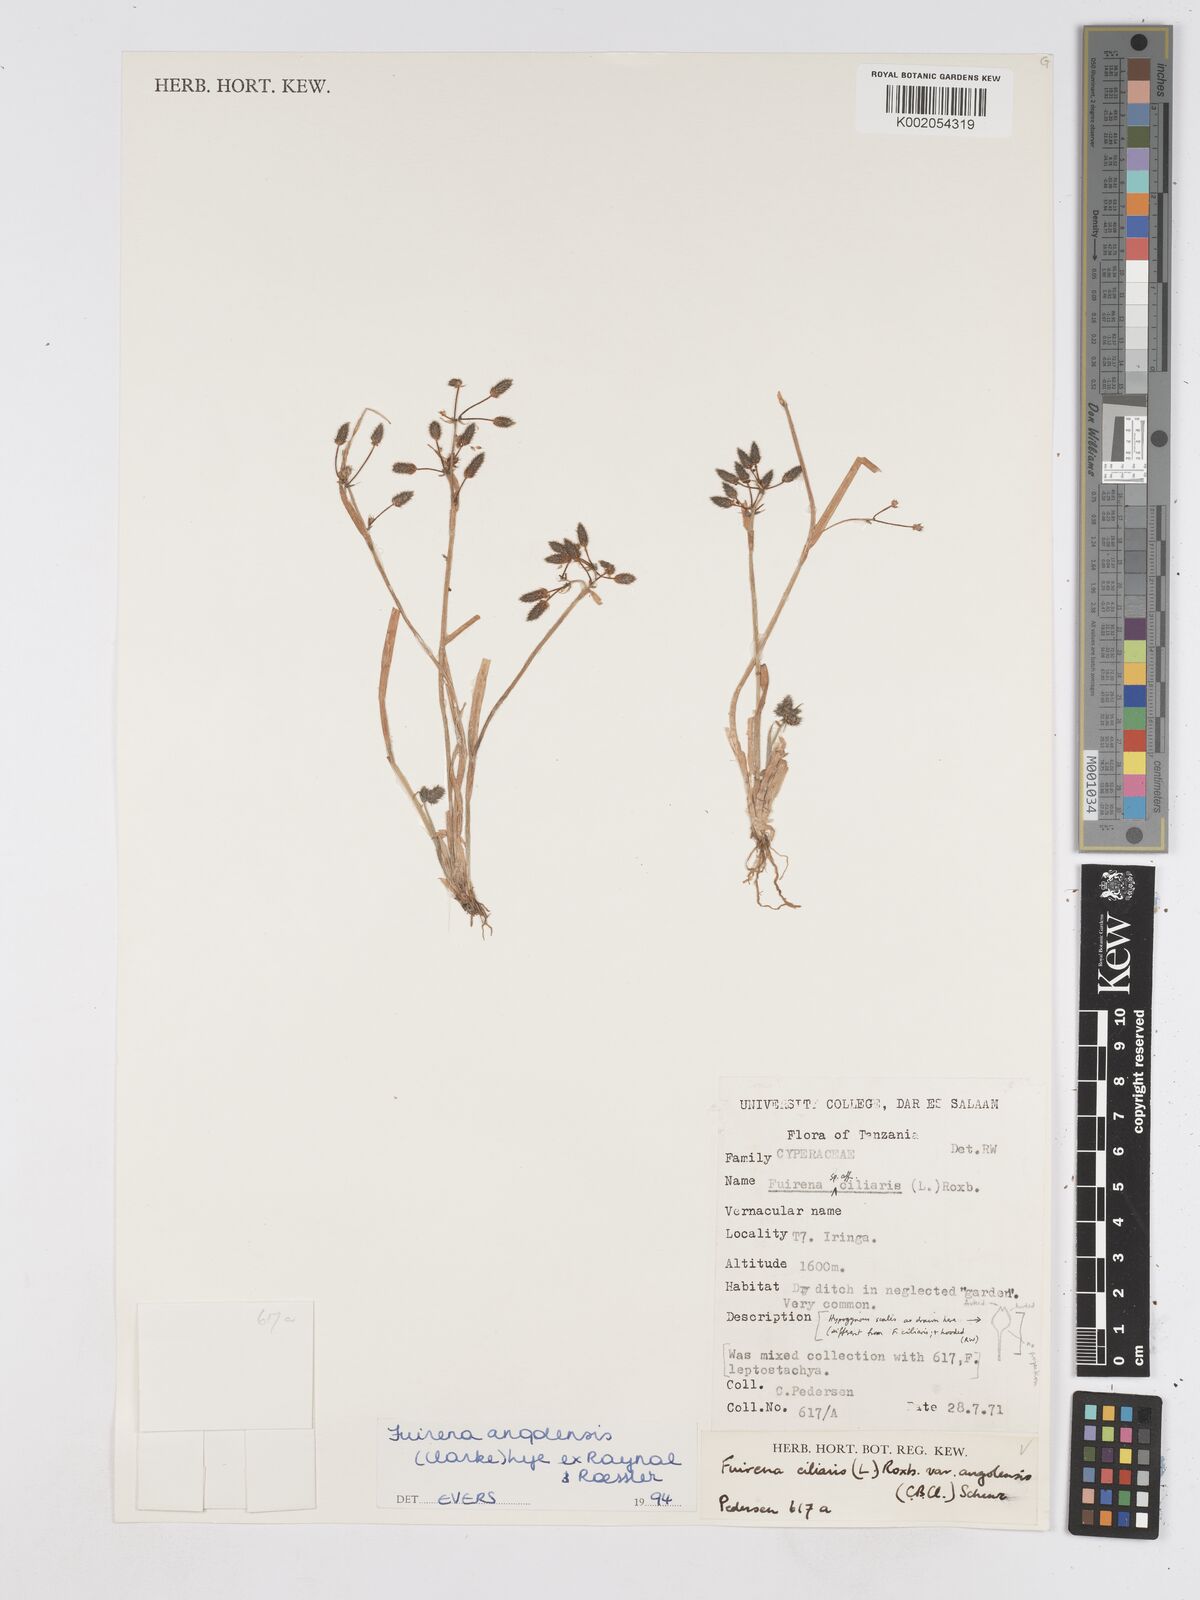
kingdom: Plantae
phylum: Tracheophyta
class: Liliopsida
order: Poales
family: Cyperaceae
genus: Fuirena
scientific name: Fuirena angolensis
